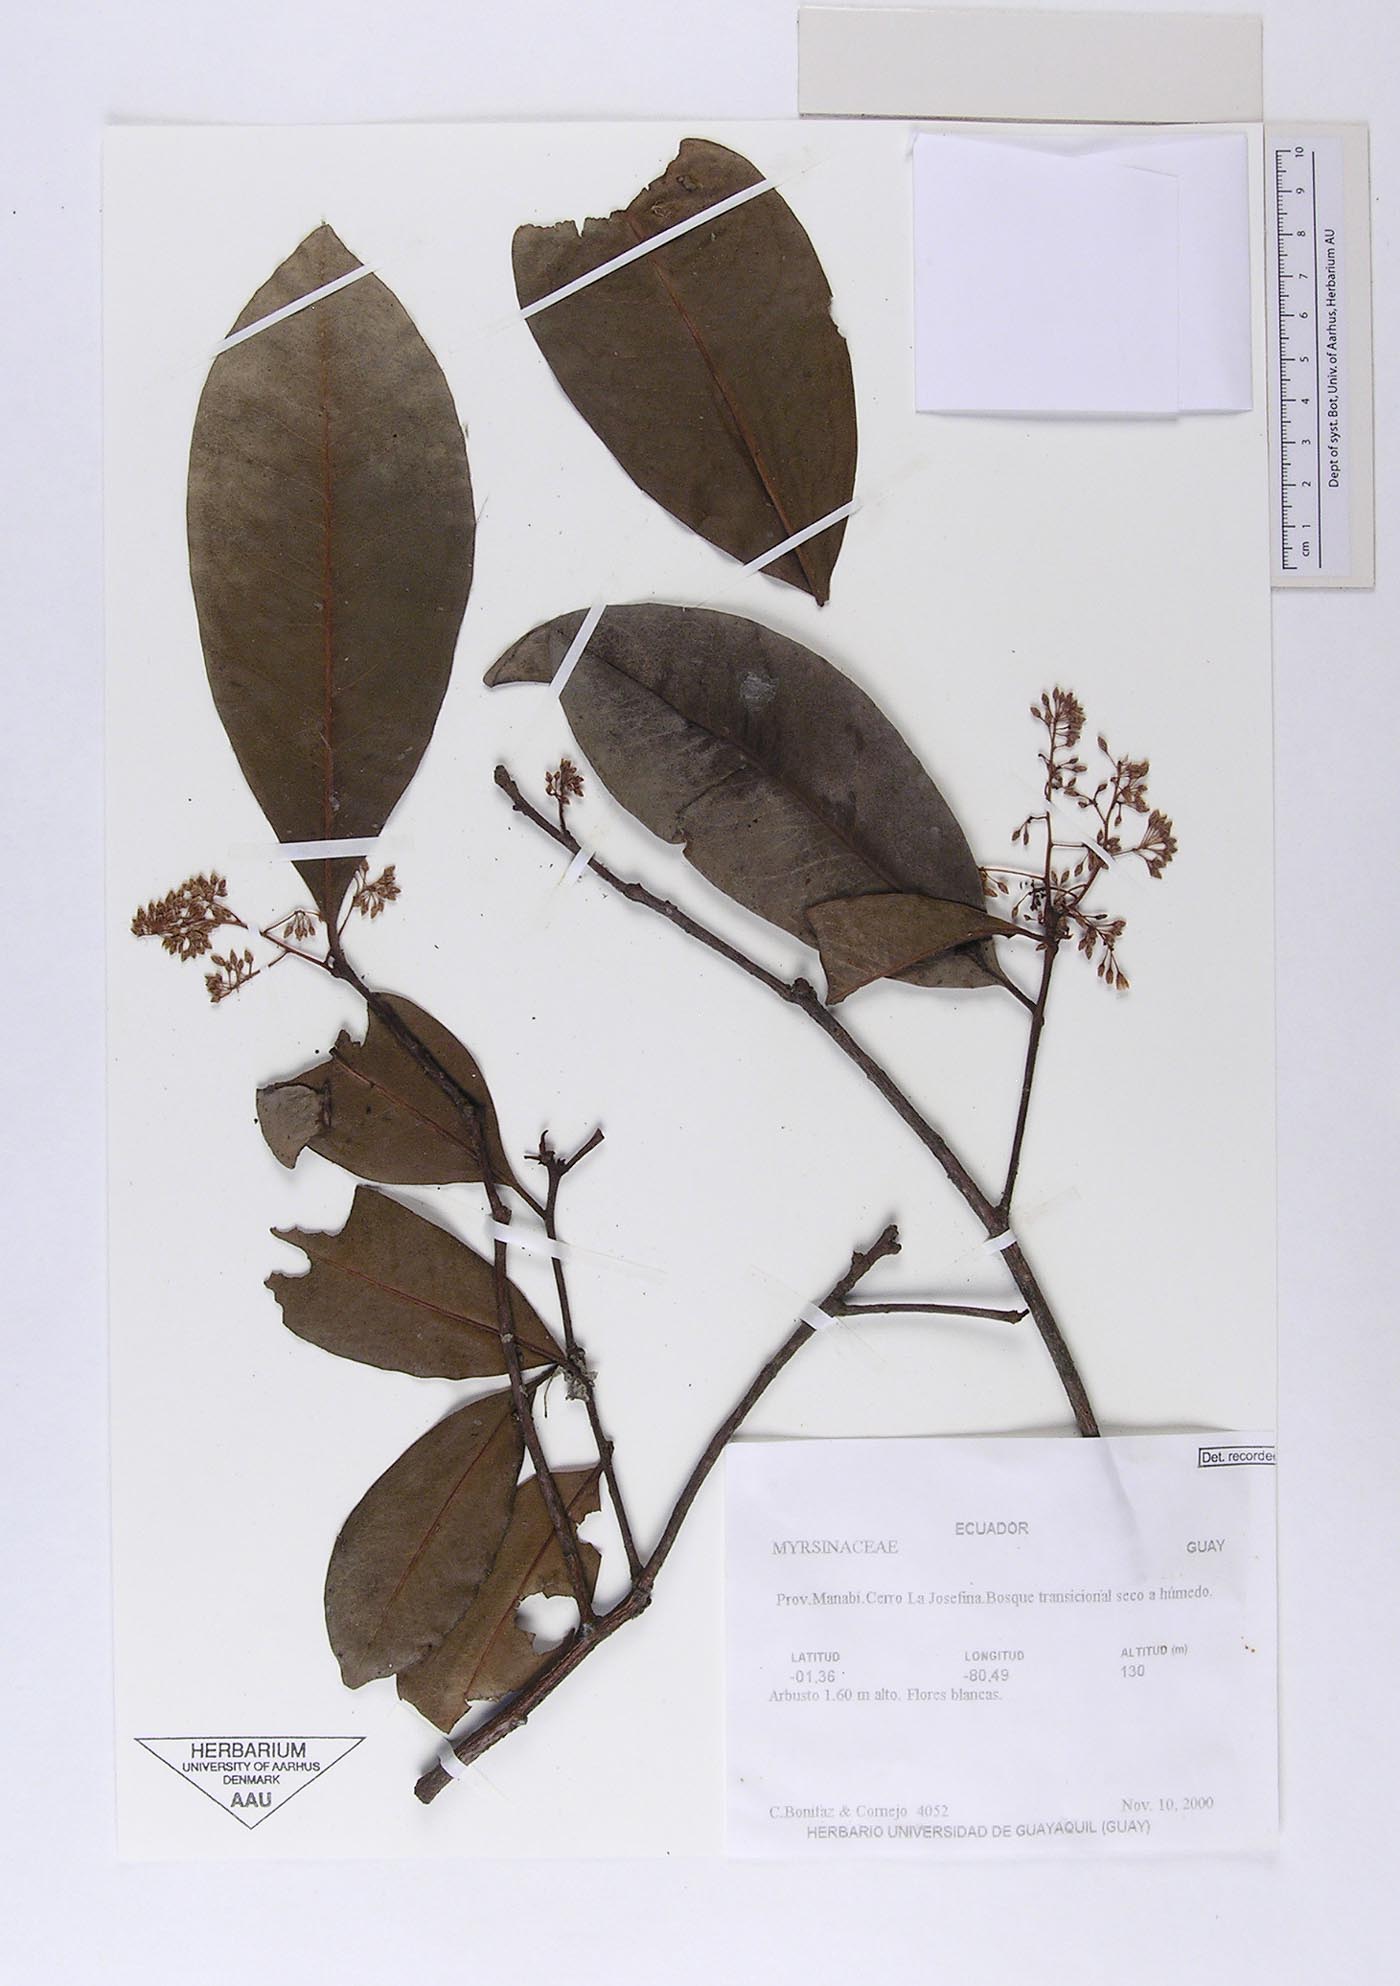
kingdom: Plantae
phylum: Tracheophyta
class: Magnoliopsida
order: Ericales
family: Primulaceae
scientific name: Primulaceae
